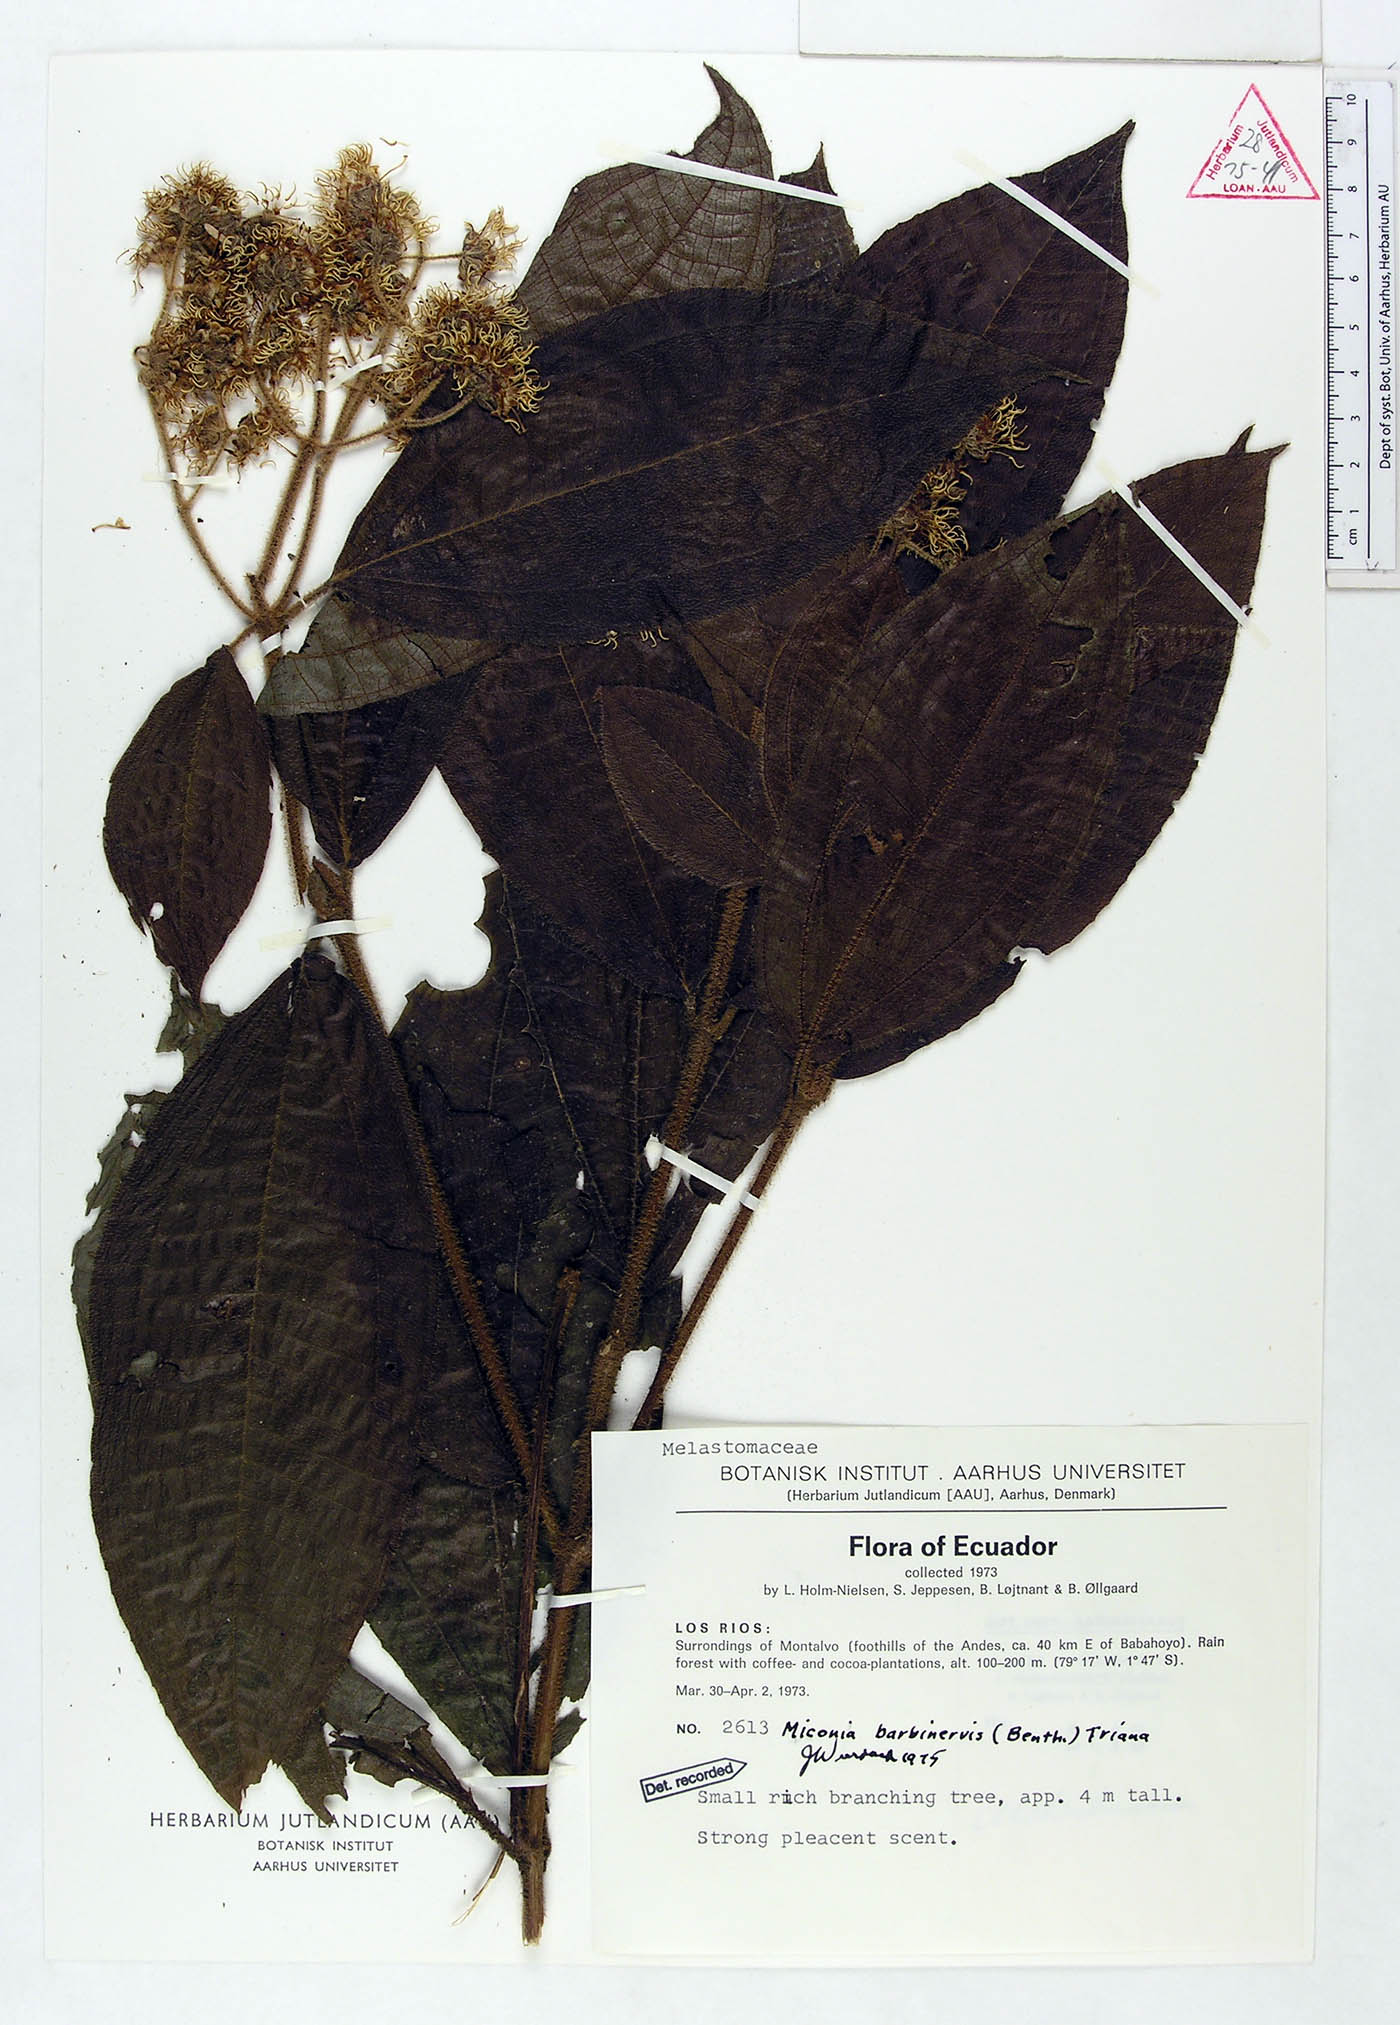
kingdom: Plantae
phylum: Tracheophyta
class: Magnoliopsida
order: Myrtales
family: Melastomataceae
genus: Miconia
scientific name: Miconia barbinervis
